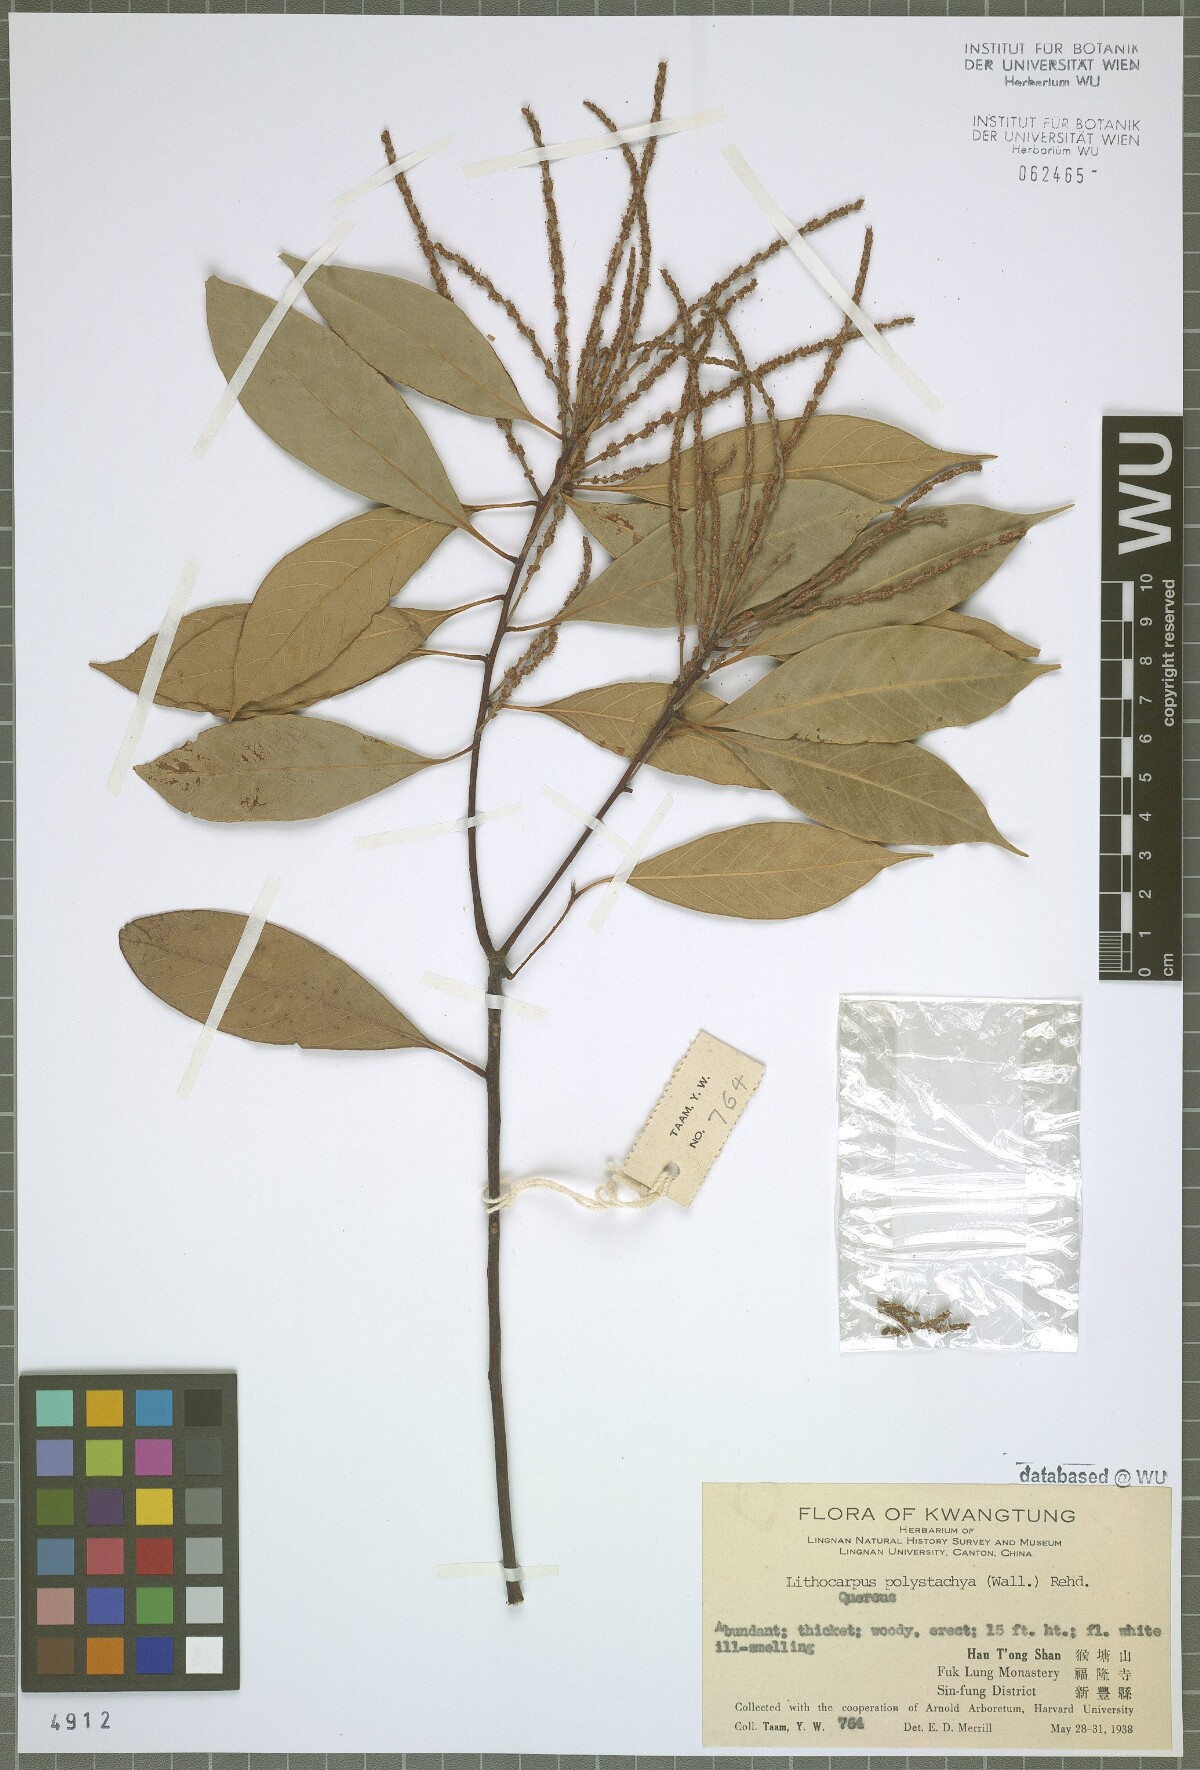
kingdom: Plantae
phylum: Tracheophyta
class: Magnoliopsida
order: Fagales
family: Fagaceae
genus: Lithocarpus
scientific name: Lithocarpus polystachyus
